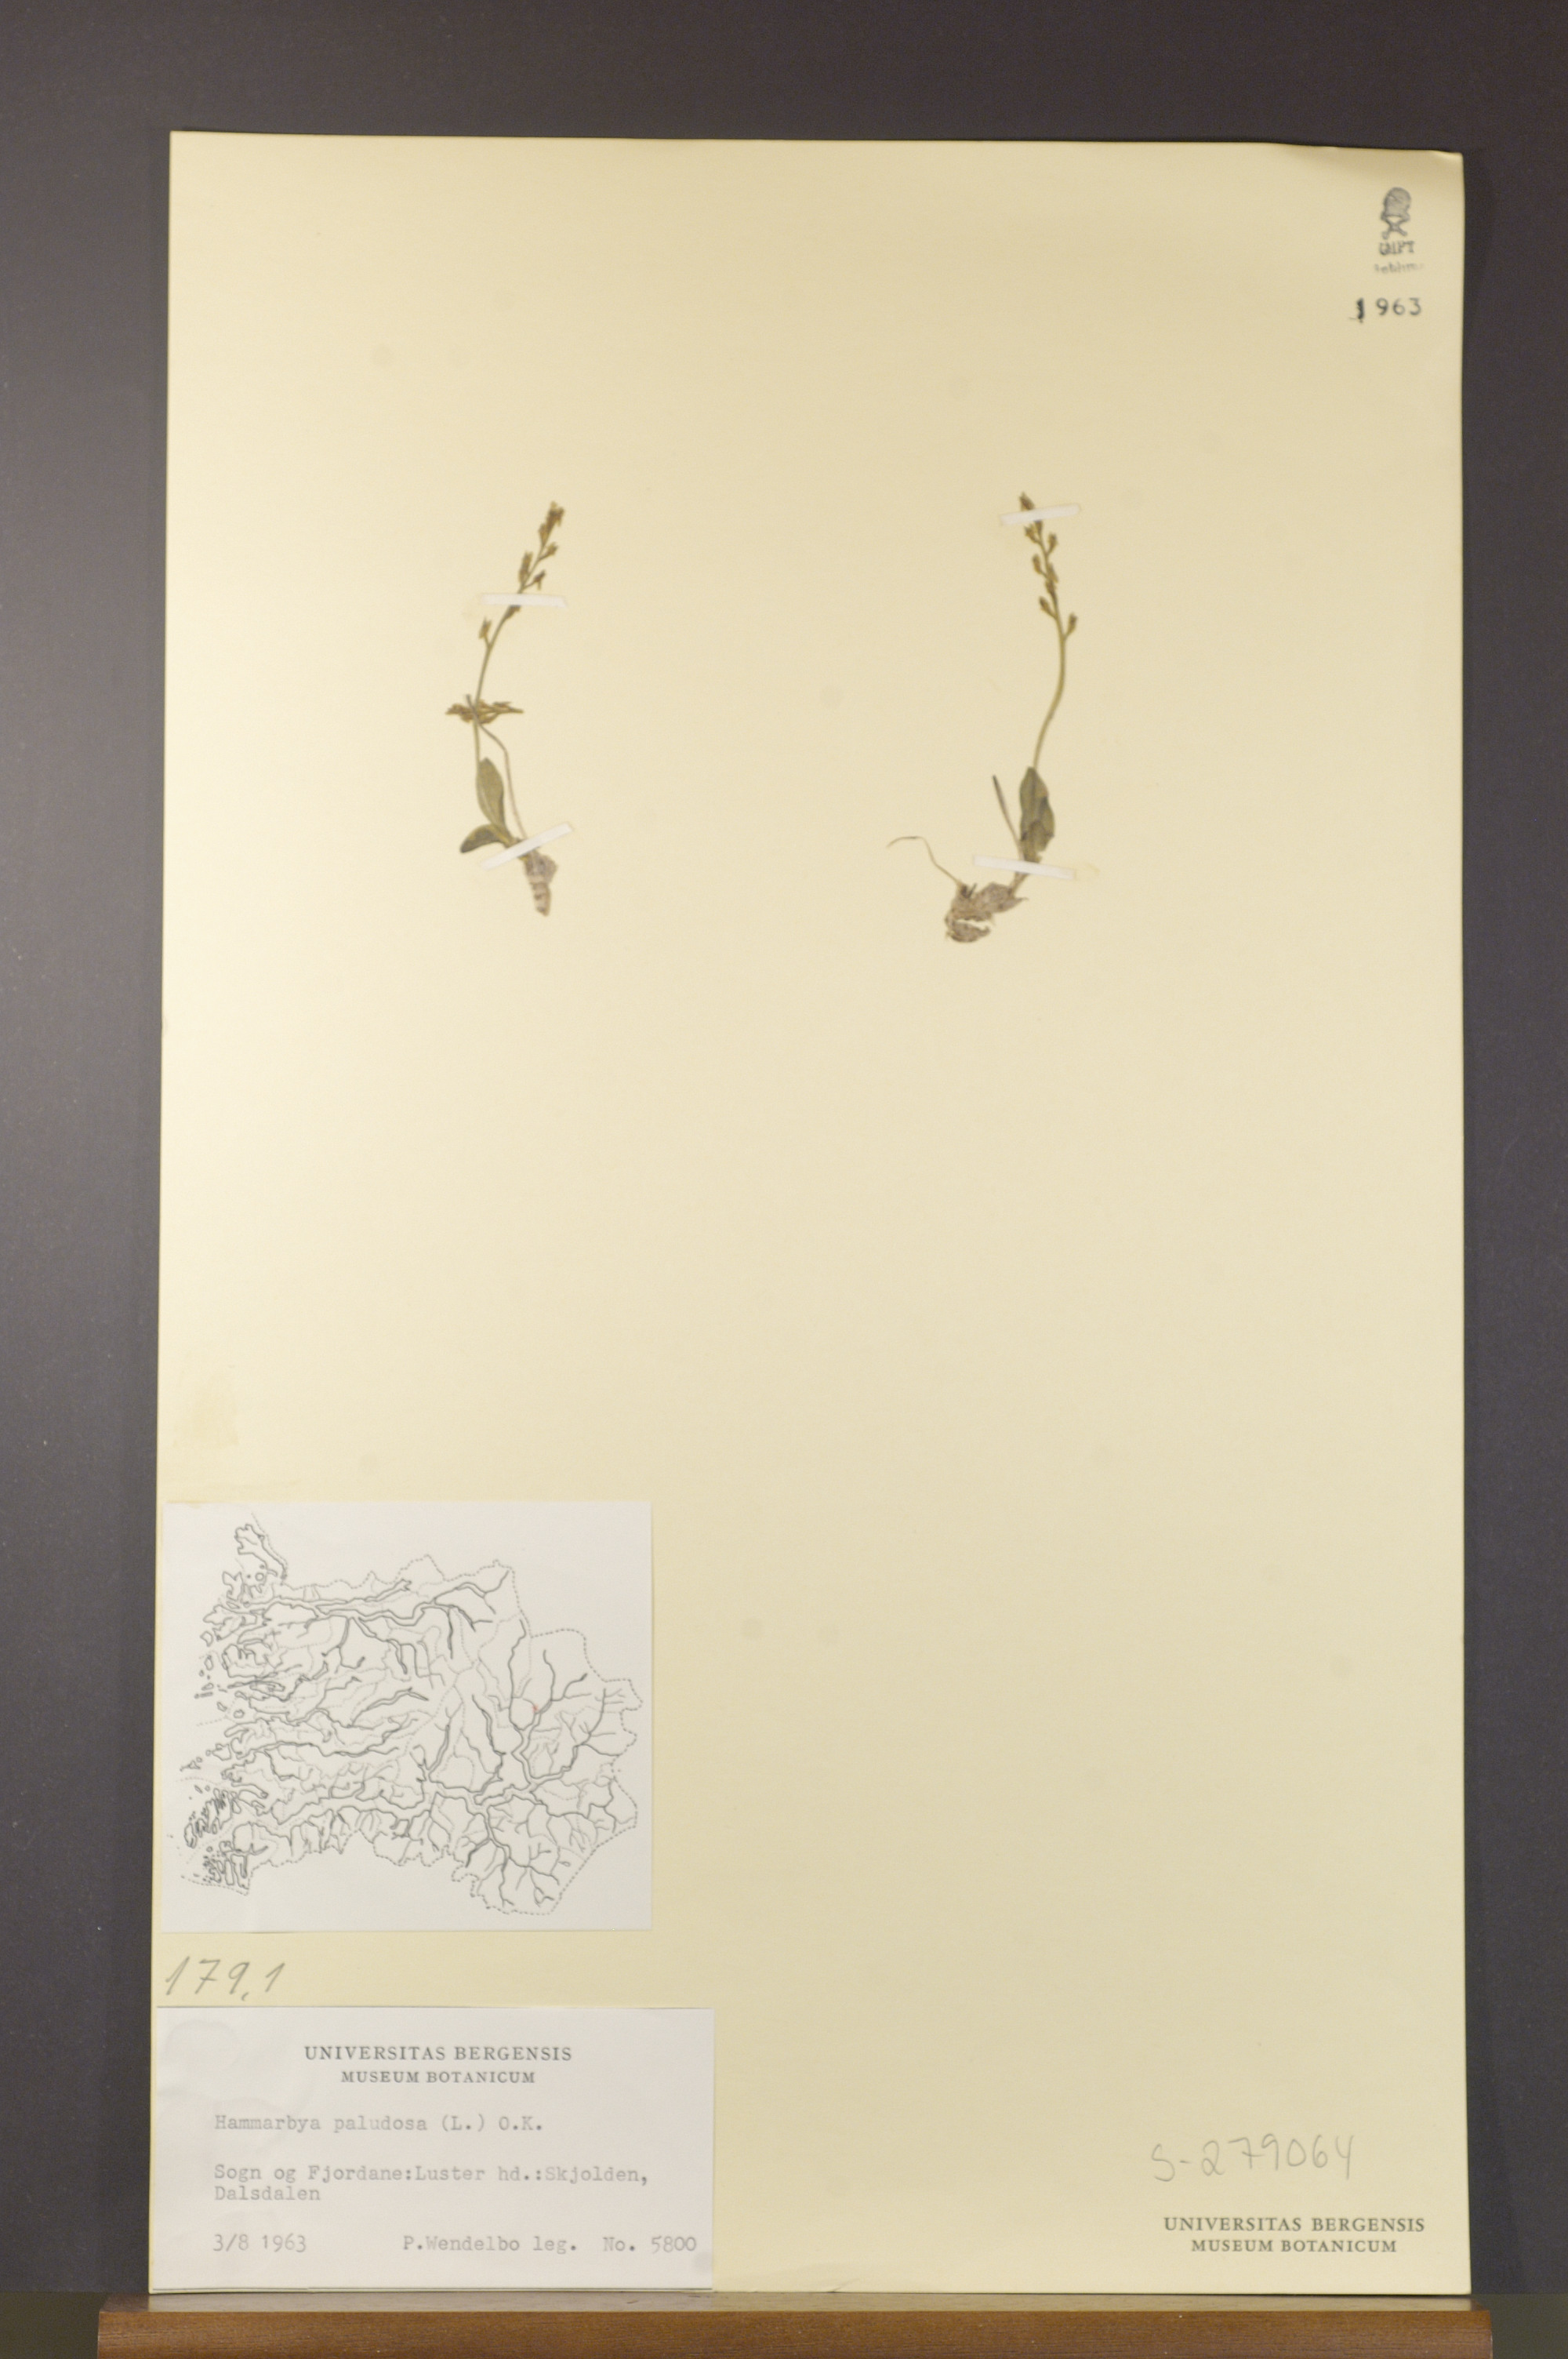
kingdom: Plantae
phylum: Tracheophyta
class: Liliopsida
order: Asparagales
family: Orchidaceae
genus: Hammarbya
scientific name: Hammarbya paludosa
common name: Bog orchid
